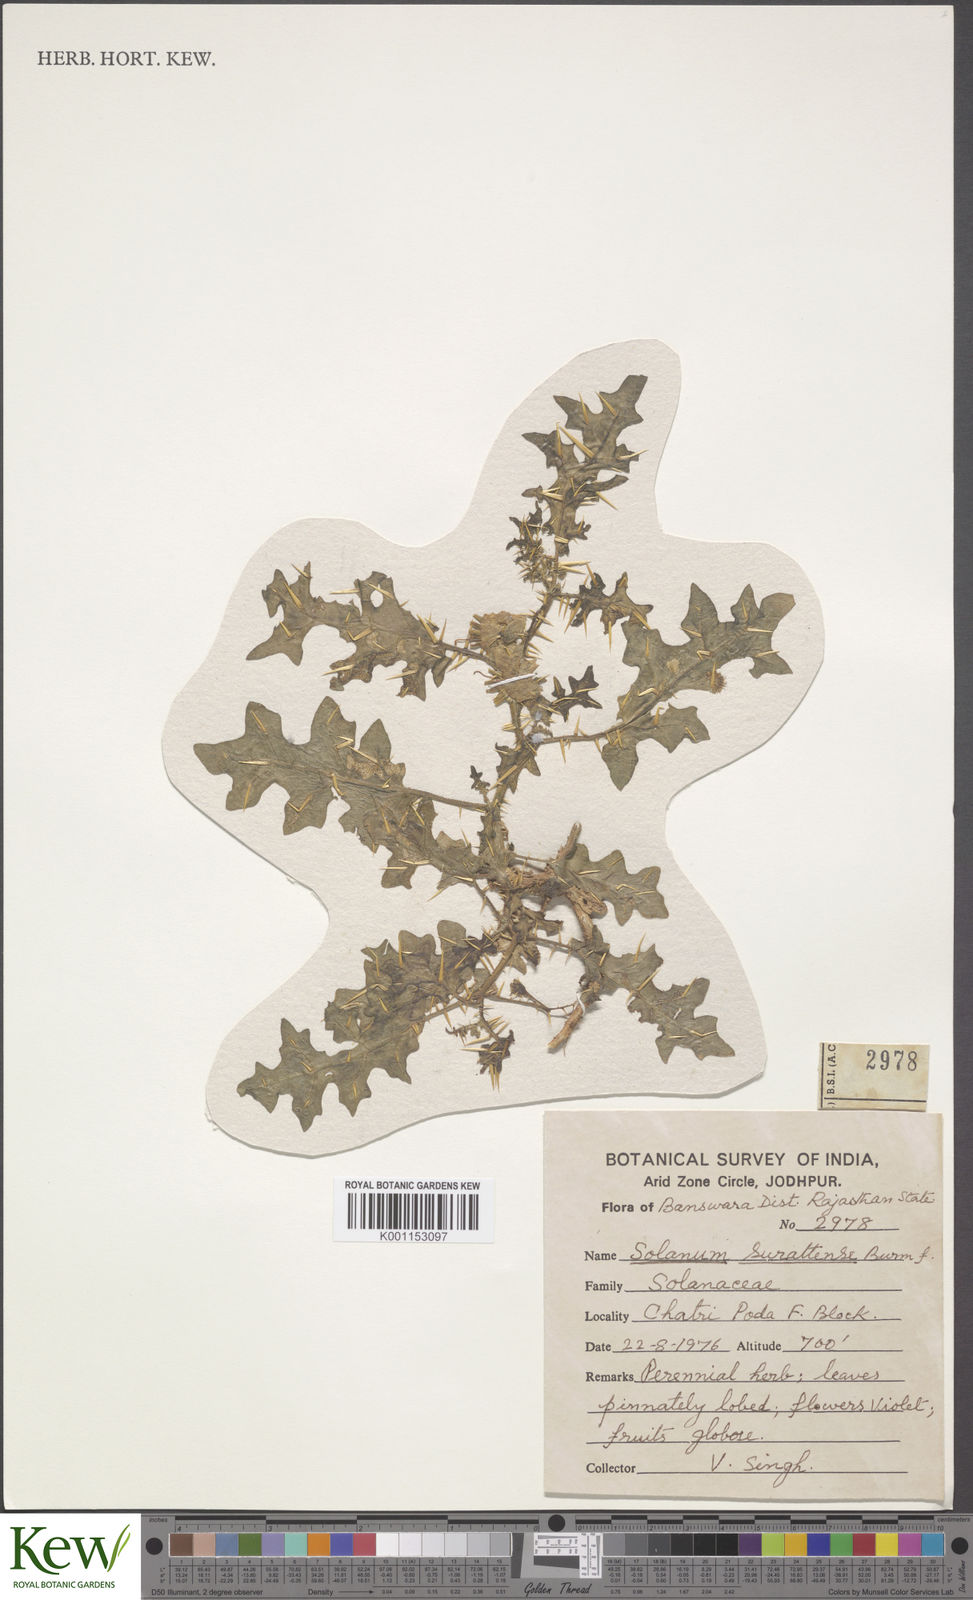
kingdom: Plantae
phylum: Tracheophyta
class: Magnoliopsida
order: Solanales
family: Solanaceae
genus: Solanum
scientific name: Solanum virginianum
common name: Surattense nightshade
